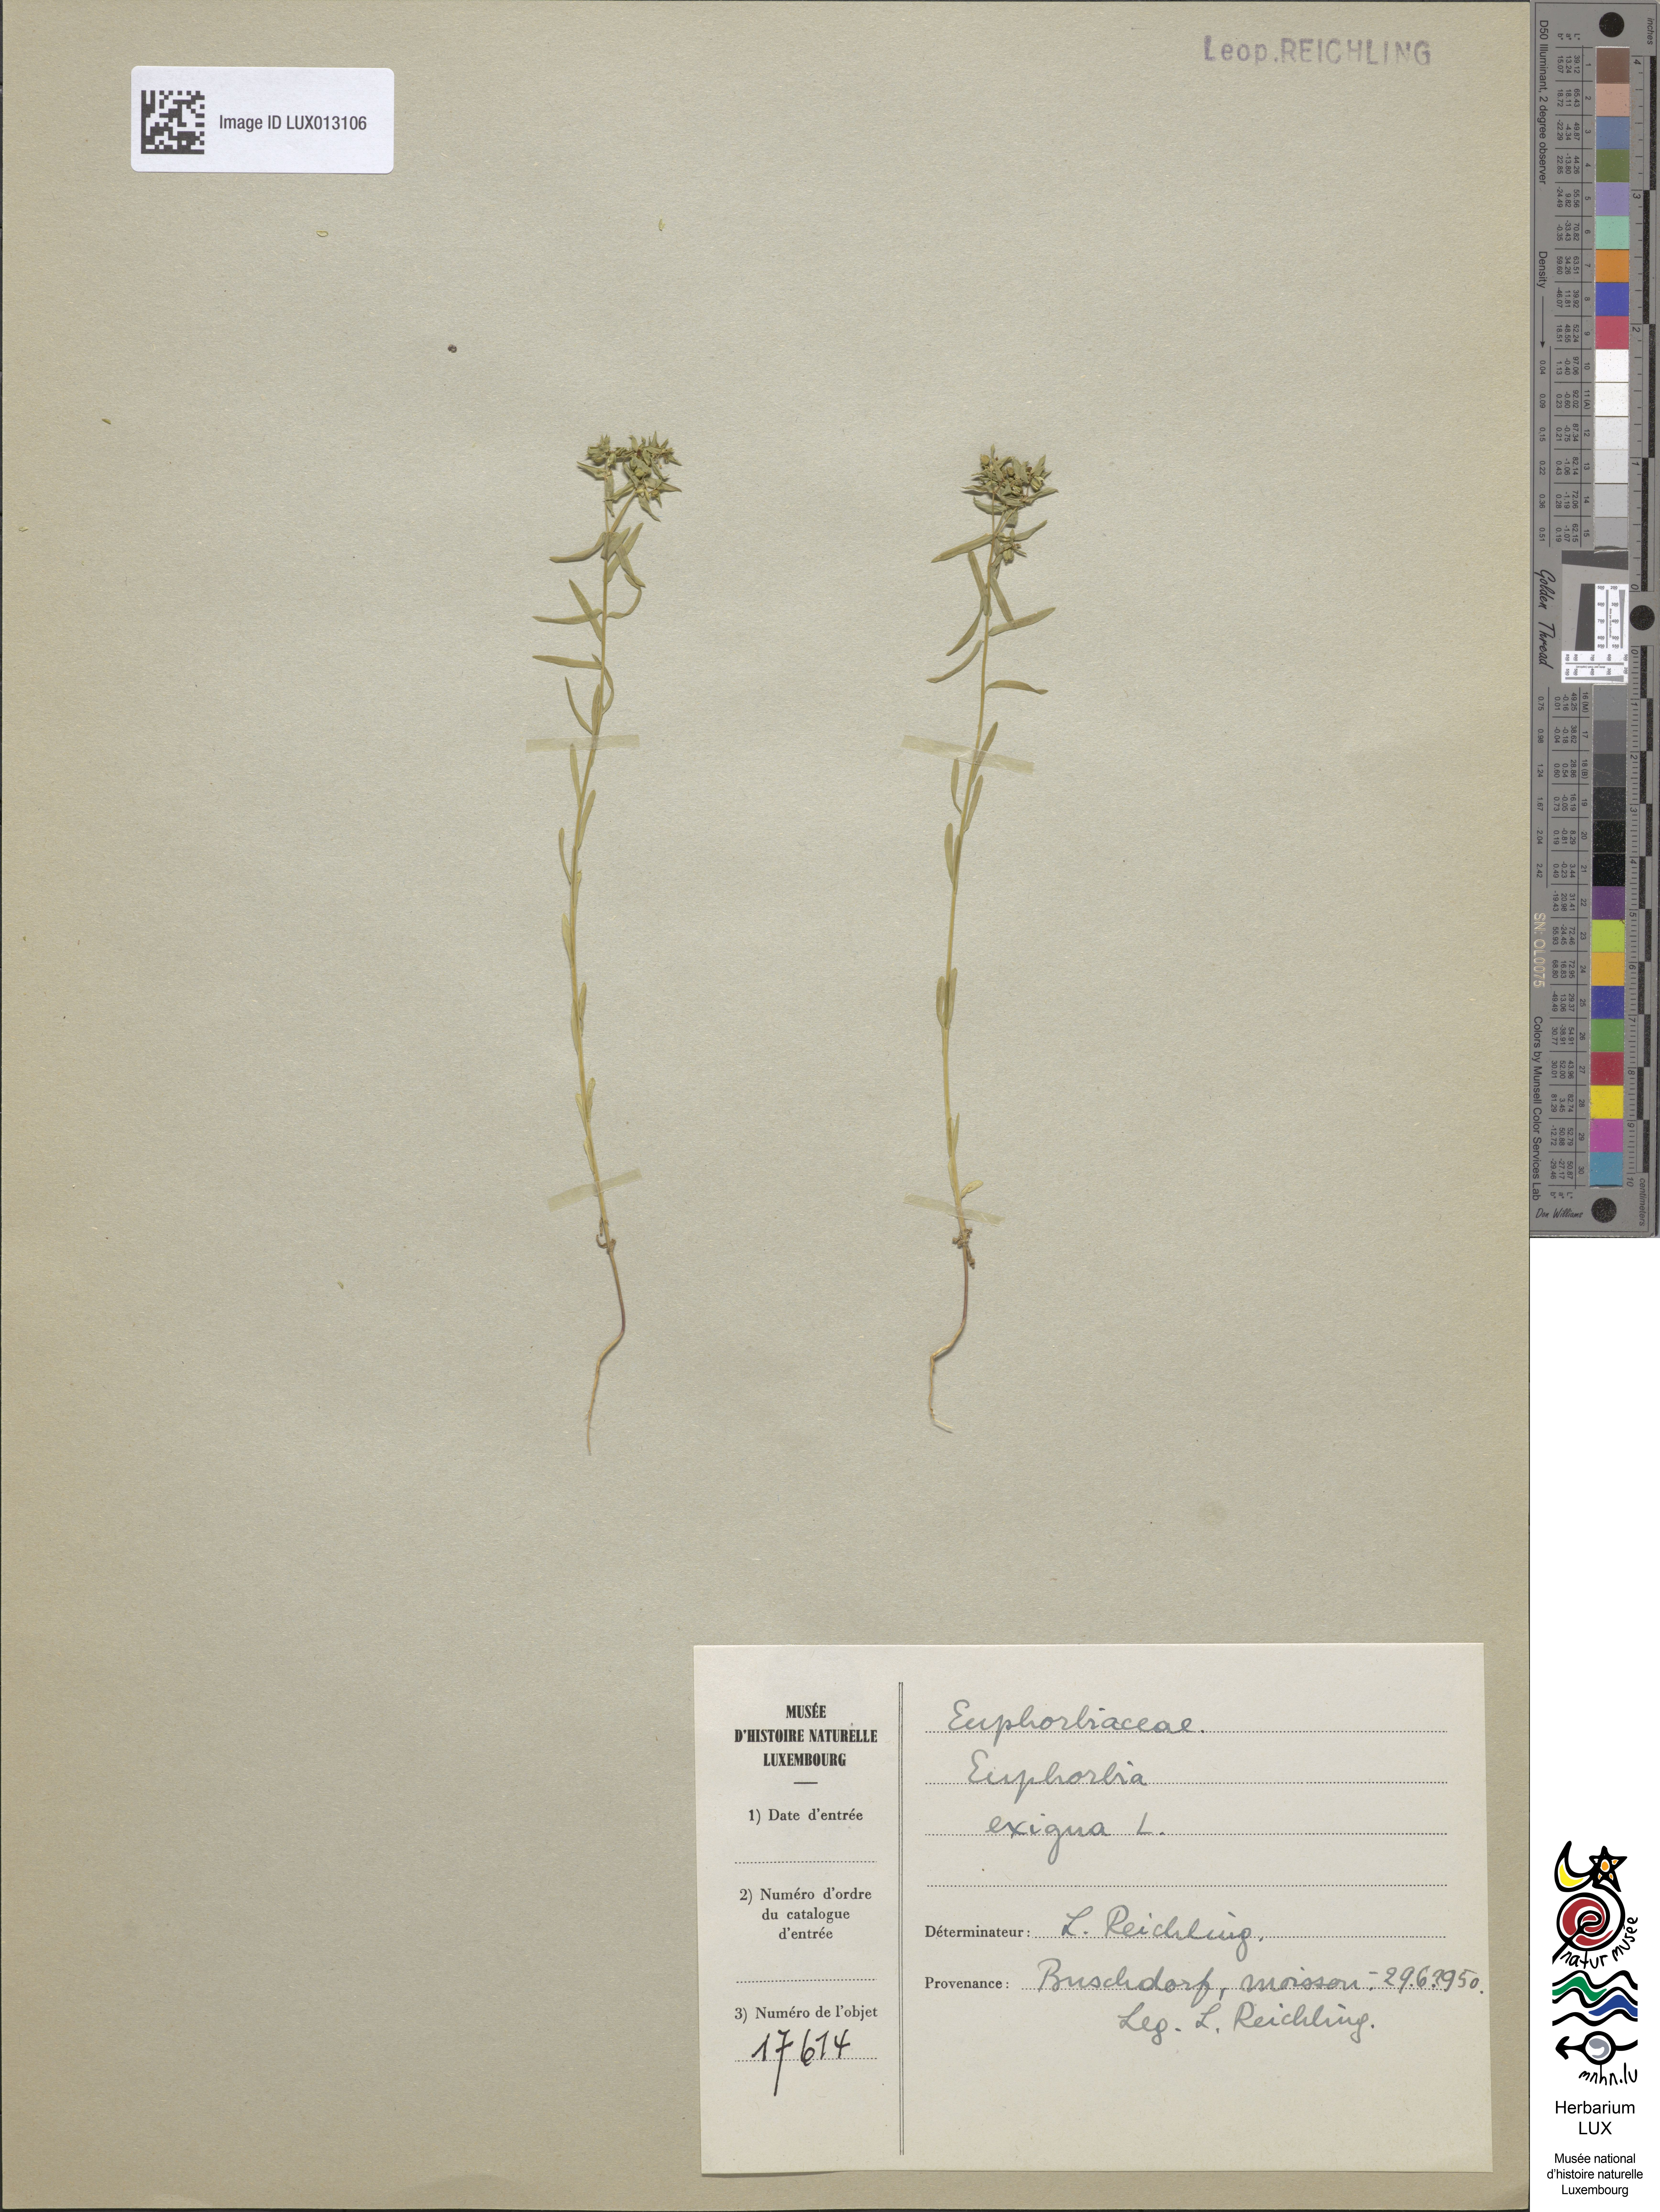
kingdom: Plantae
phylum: Tracheophyta
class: Magnoliopsida
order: Malpighiales
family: Euphorbiaceae
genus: Euphorbia
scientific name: Euphorbia exigua
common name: Dwarf spurge
